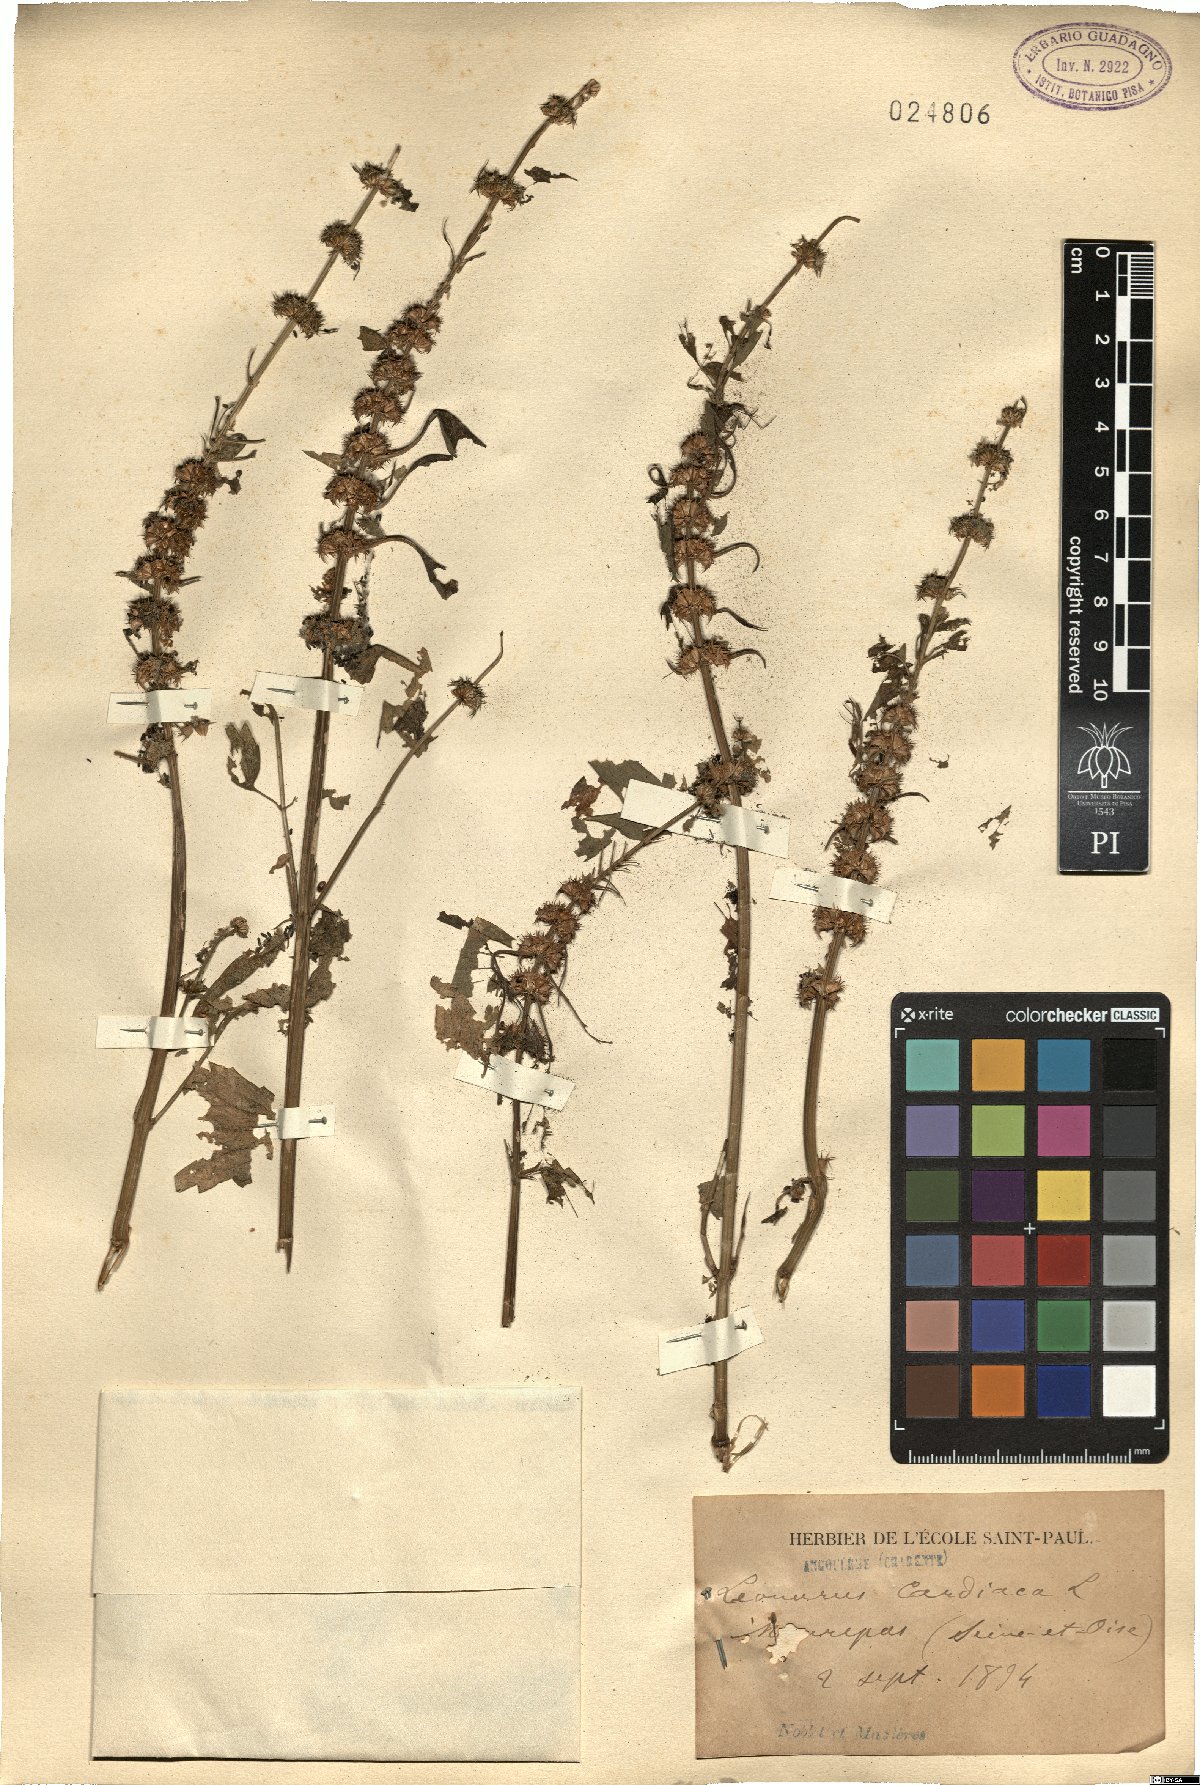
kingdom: Plantae
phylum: Tracheophyta
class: Magnoliopsida
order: Lamiales
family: Lamiaceae
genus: Leonurus
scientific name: Leonurus cardiaca
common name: Motherwort
